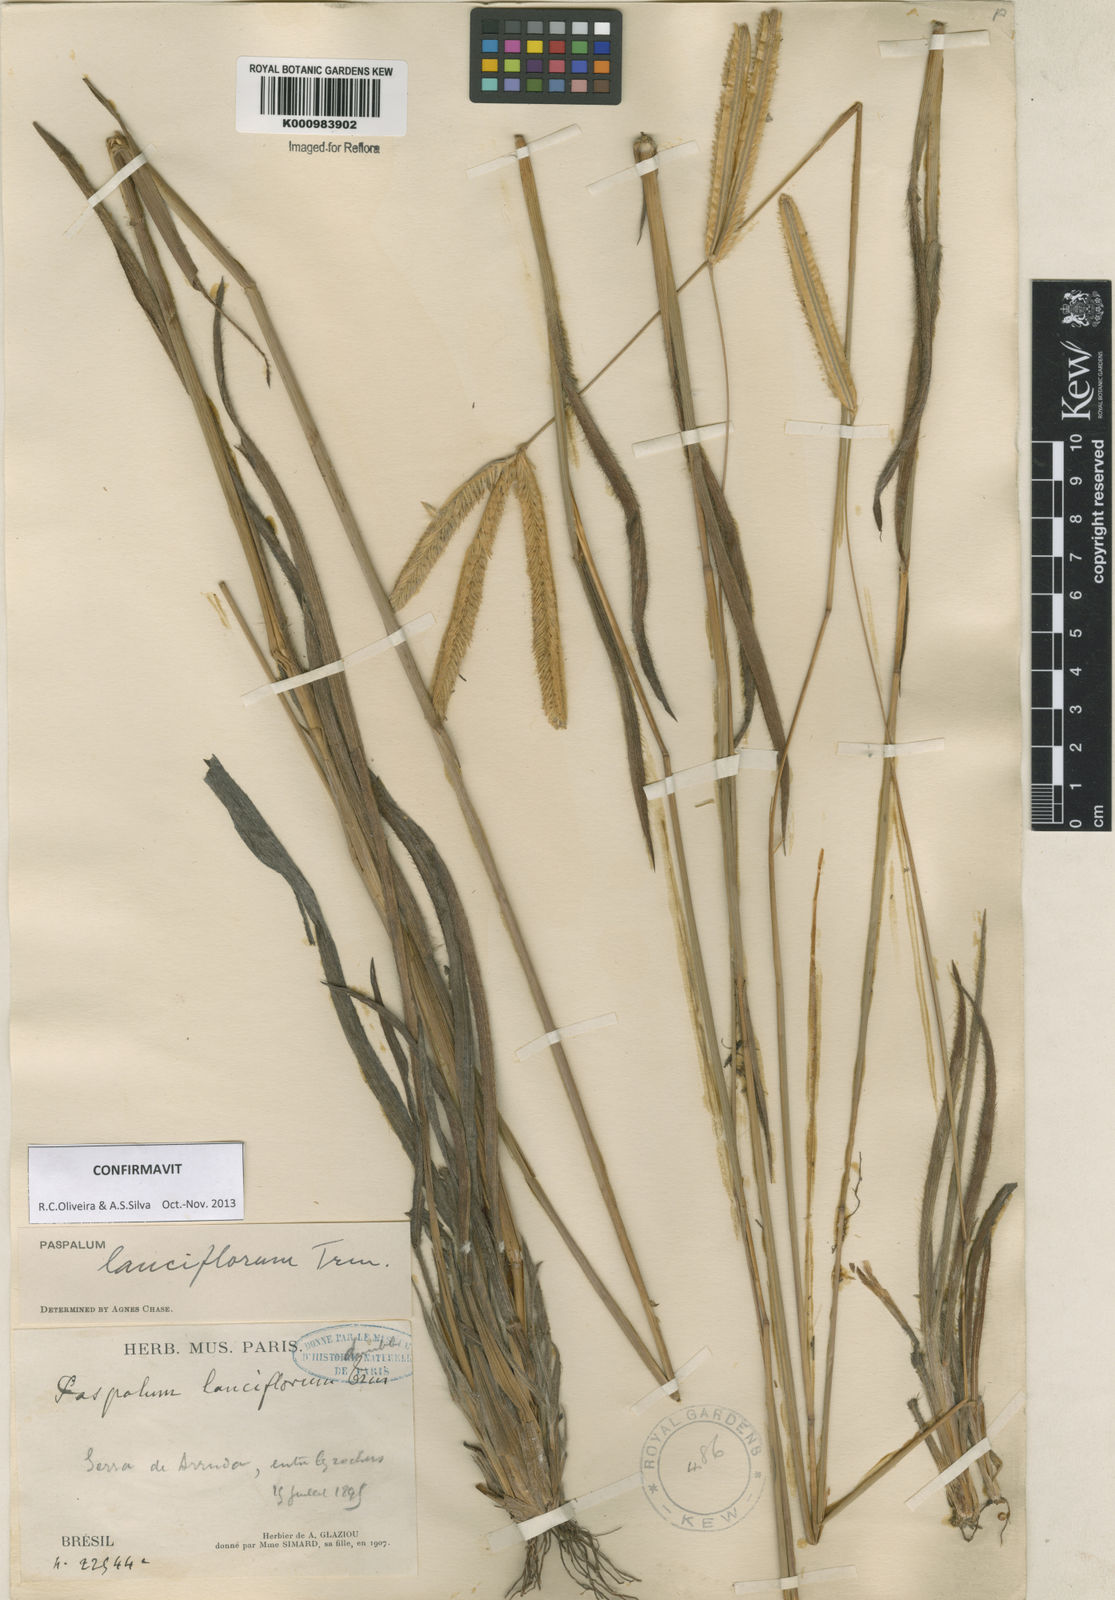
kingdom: Plantae
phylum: Tracheophyta
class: Liliopsida
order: Poales
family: Poaceae
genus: Paspalum
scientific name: Paspalum
